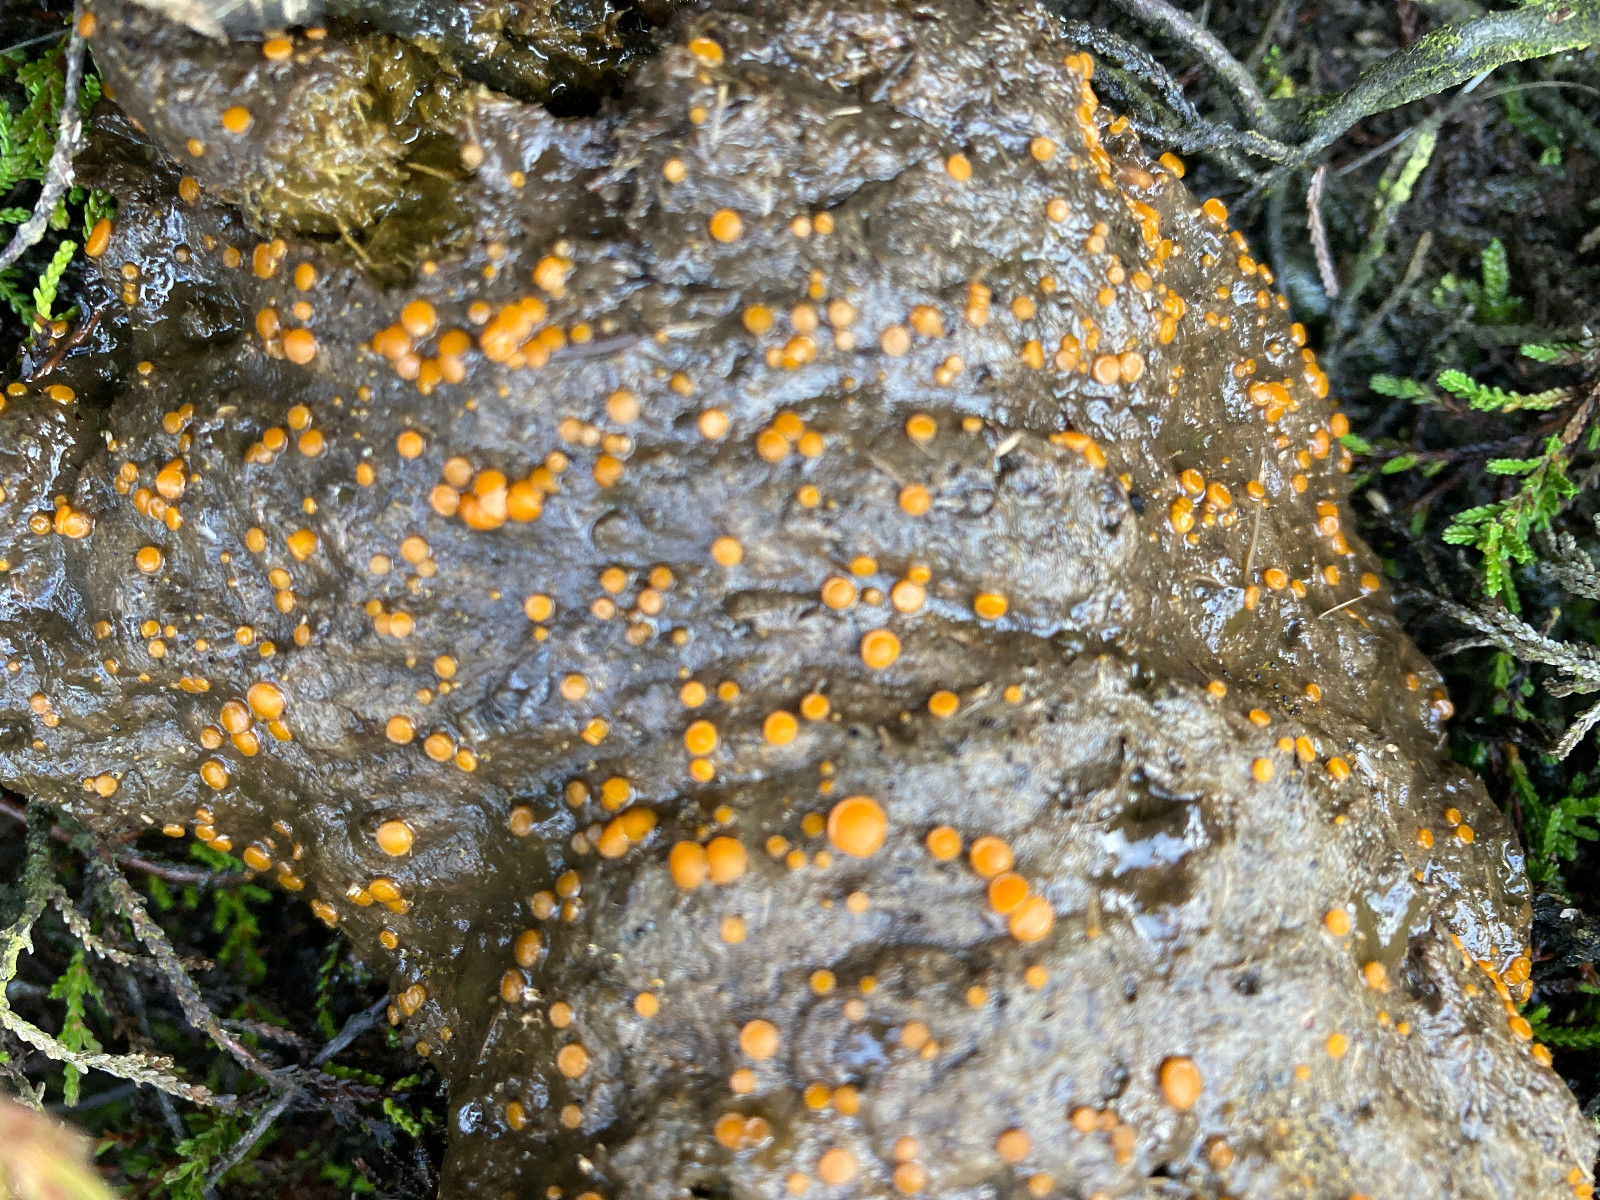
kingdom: Fungi
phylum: Ascomycota
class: Pezizomycetes
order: Pezizales
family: Pyronemataceae
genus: Cheilymenia
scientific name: Cheilymenia granulata
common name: møgbæger
